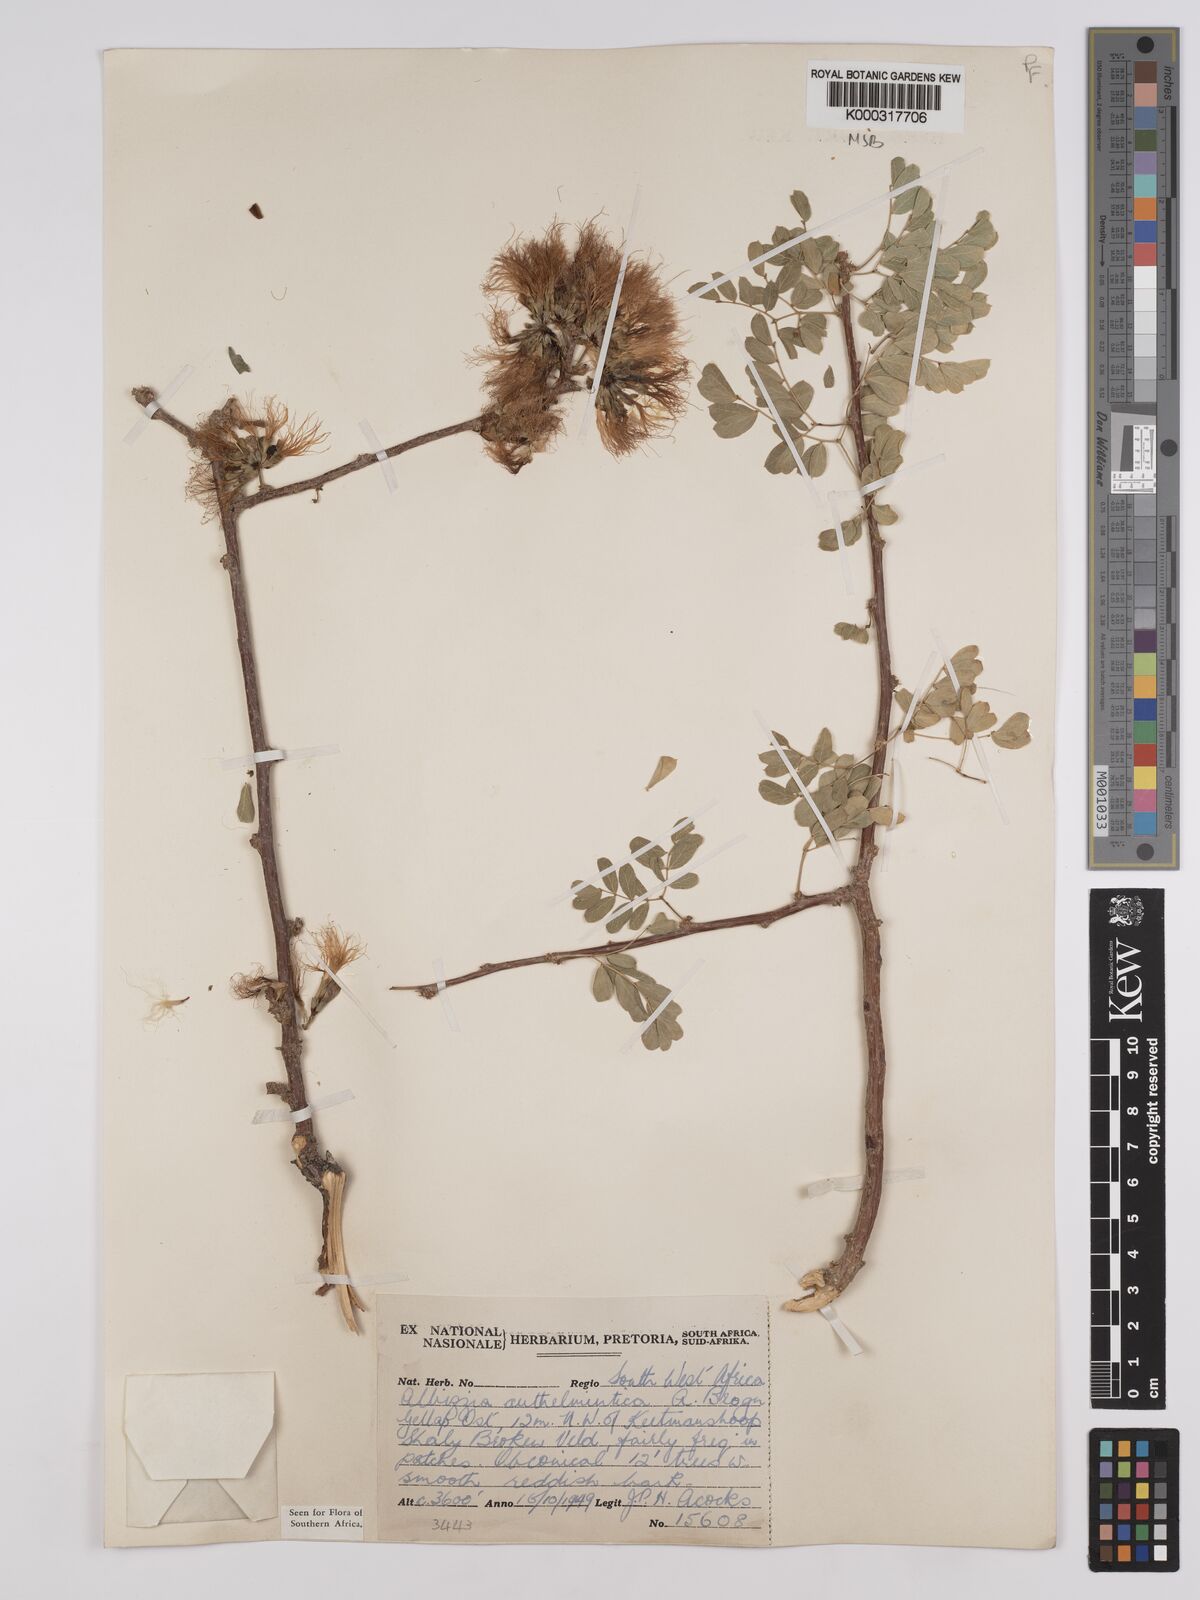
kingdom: Plantae
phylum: Tracheophyta
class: Magnoliopsida
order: Fabales
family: Fabaceae
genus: Albizia
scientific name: Albizia anthelmintica
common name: Worm-bark false-thorn
